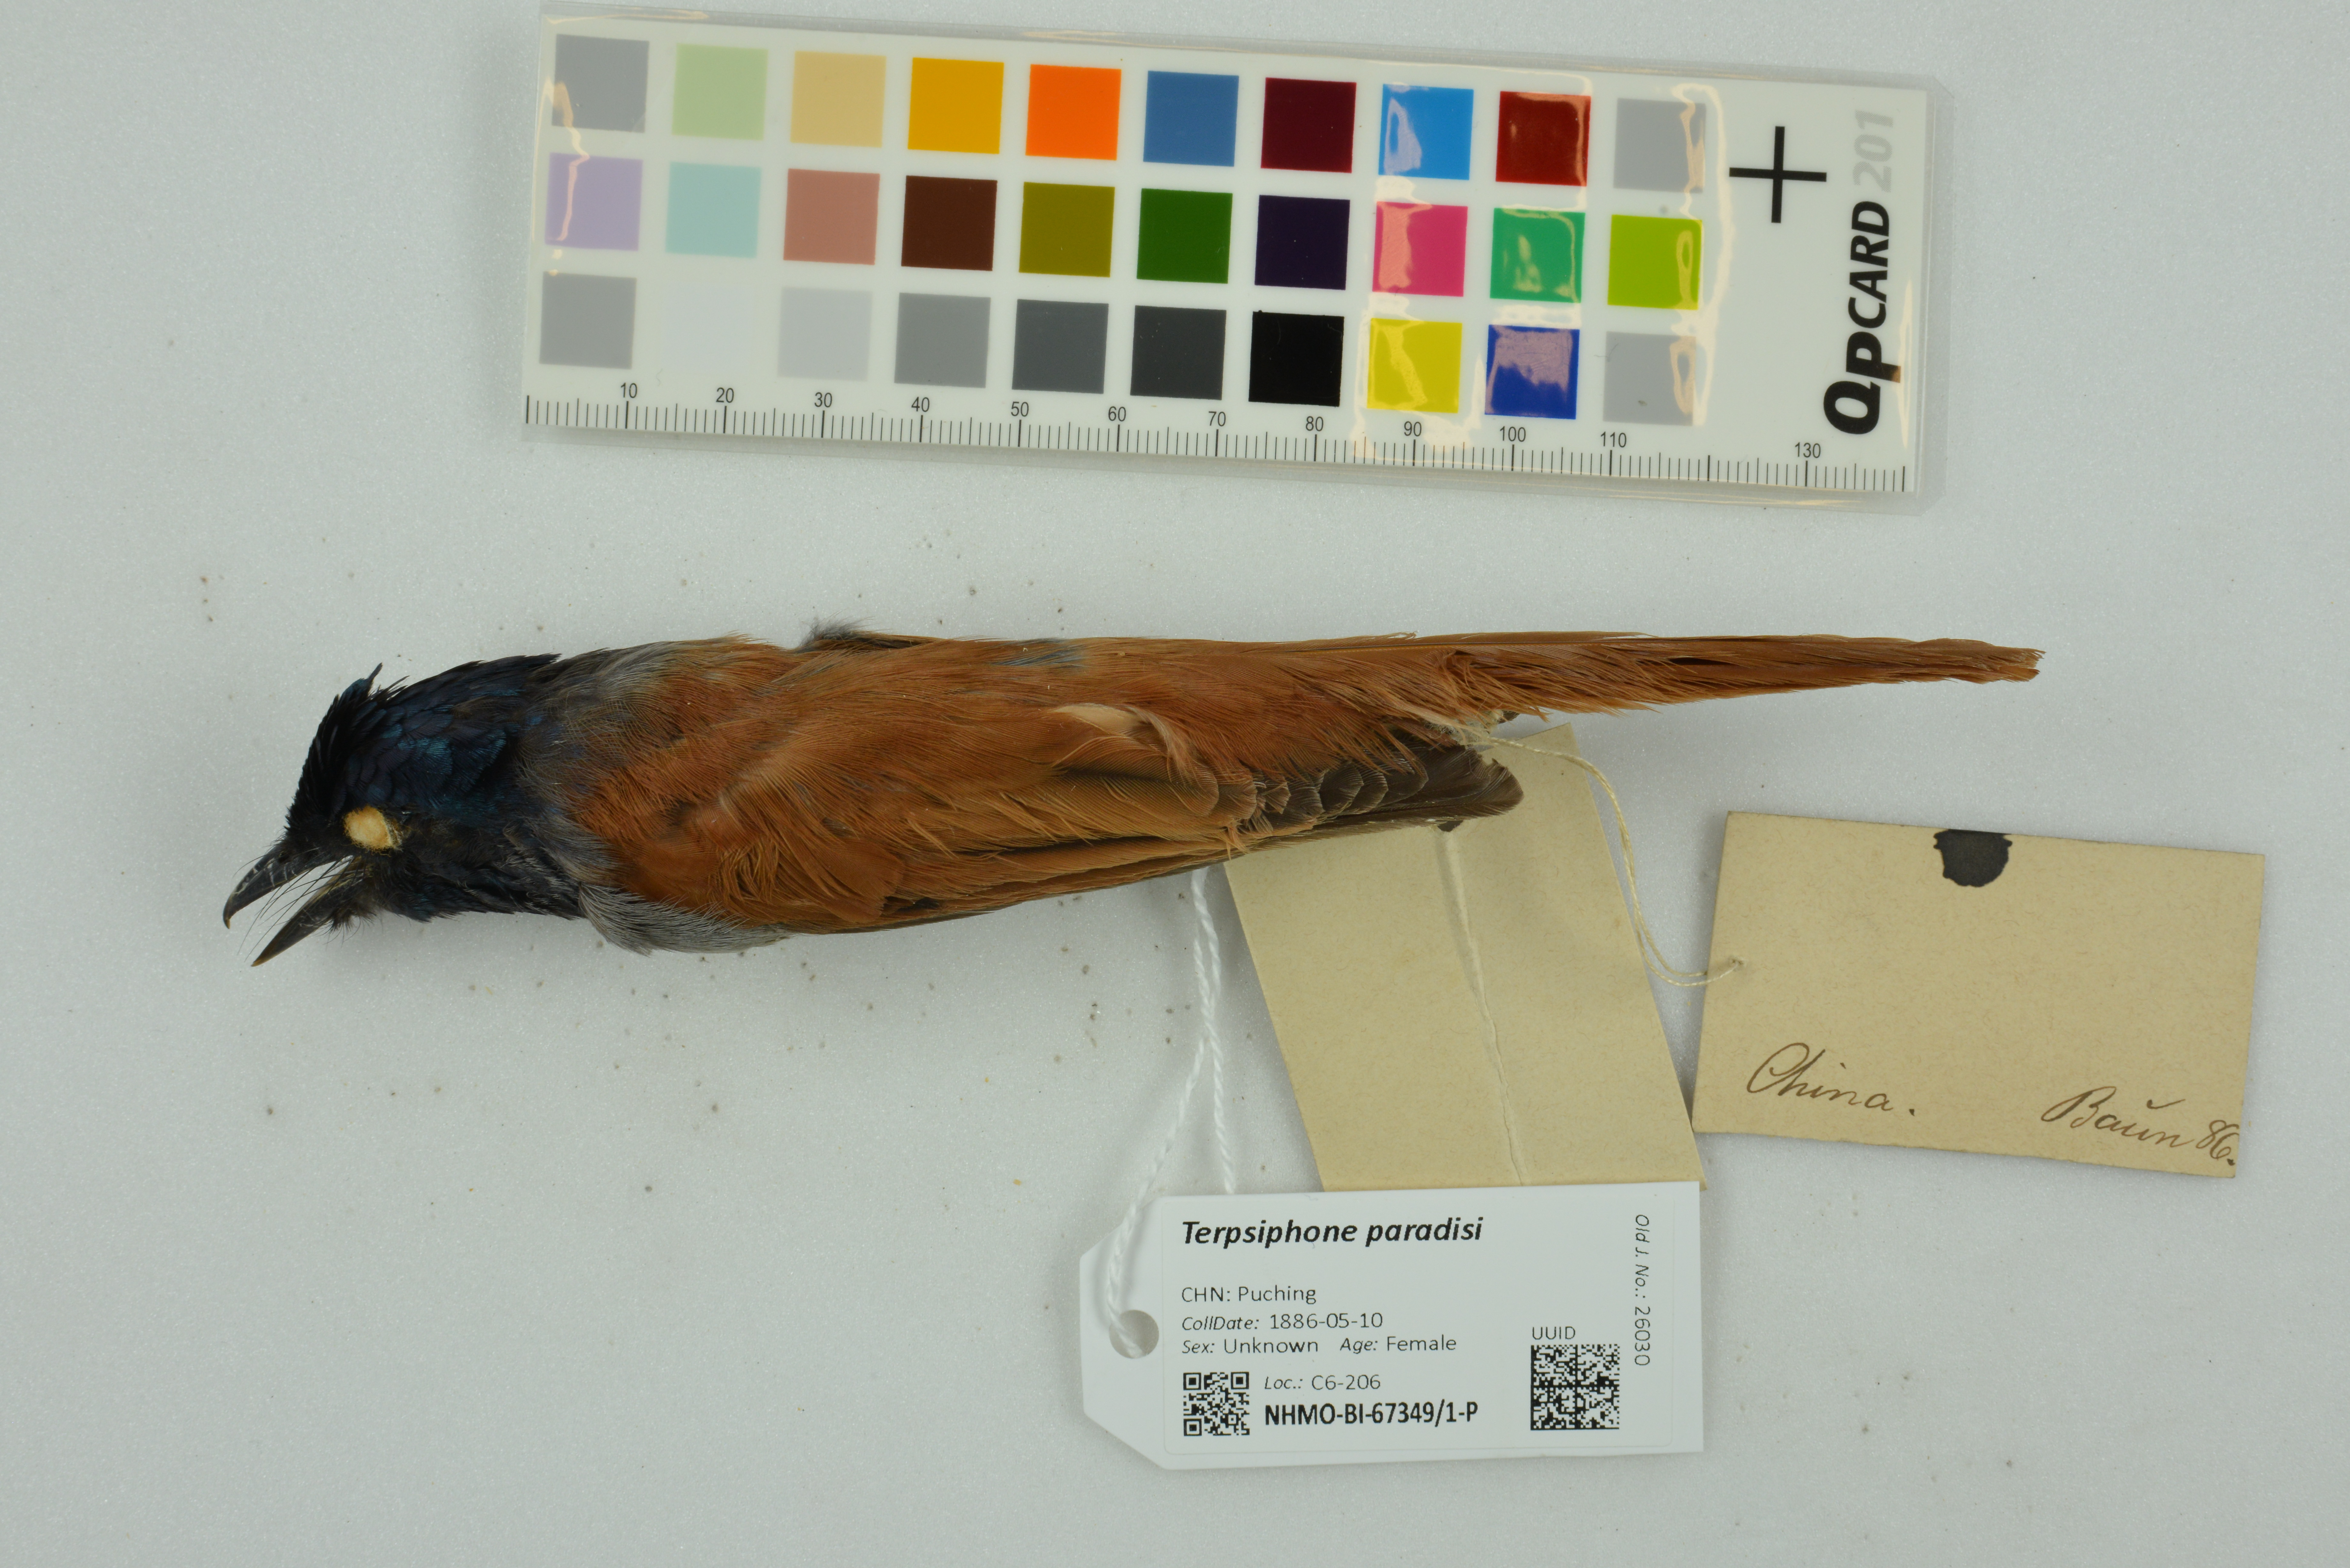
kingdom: Animalia
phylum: Chordata
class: Aves
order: Passeriformes
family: Monarchidae
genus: Terpsiphone
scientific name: Terpsiphone paradisi
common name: Indian paradise flycatcher
